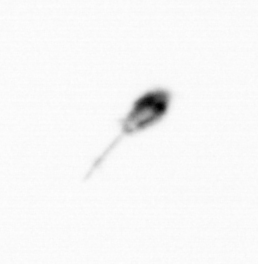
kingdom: Animalia
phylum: Arthropoda
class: Copepoda
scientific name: Copepoda
